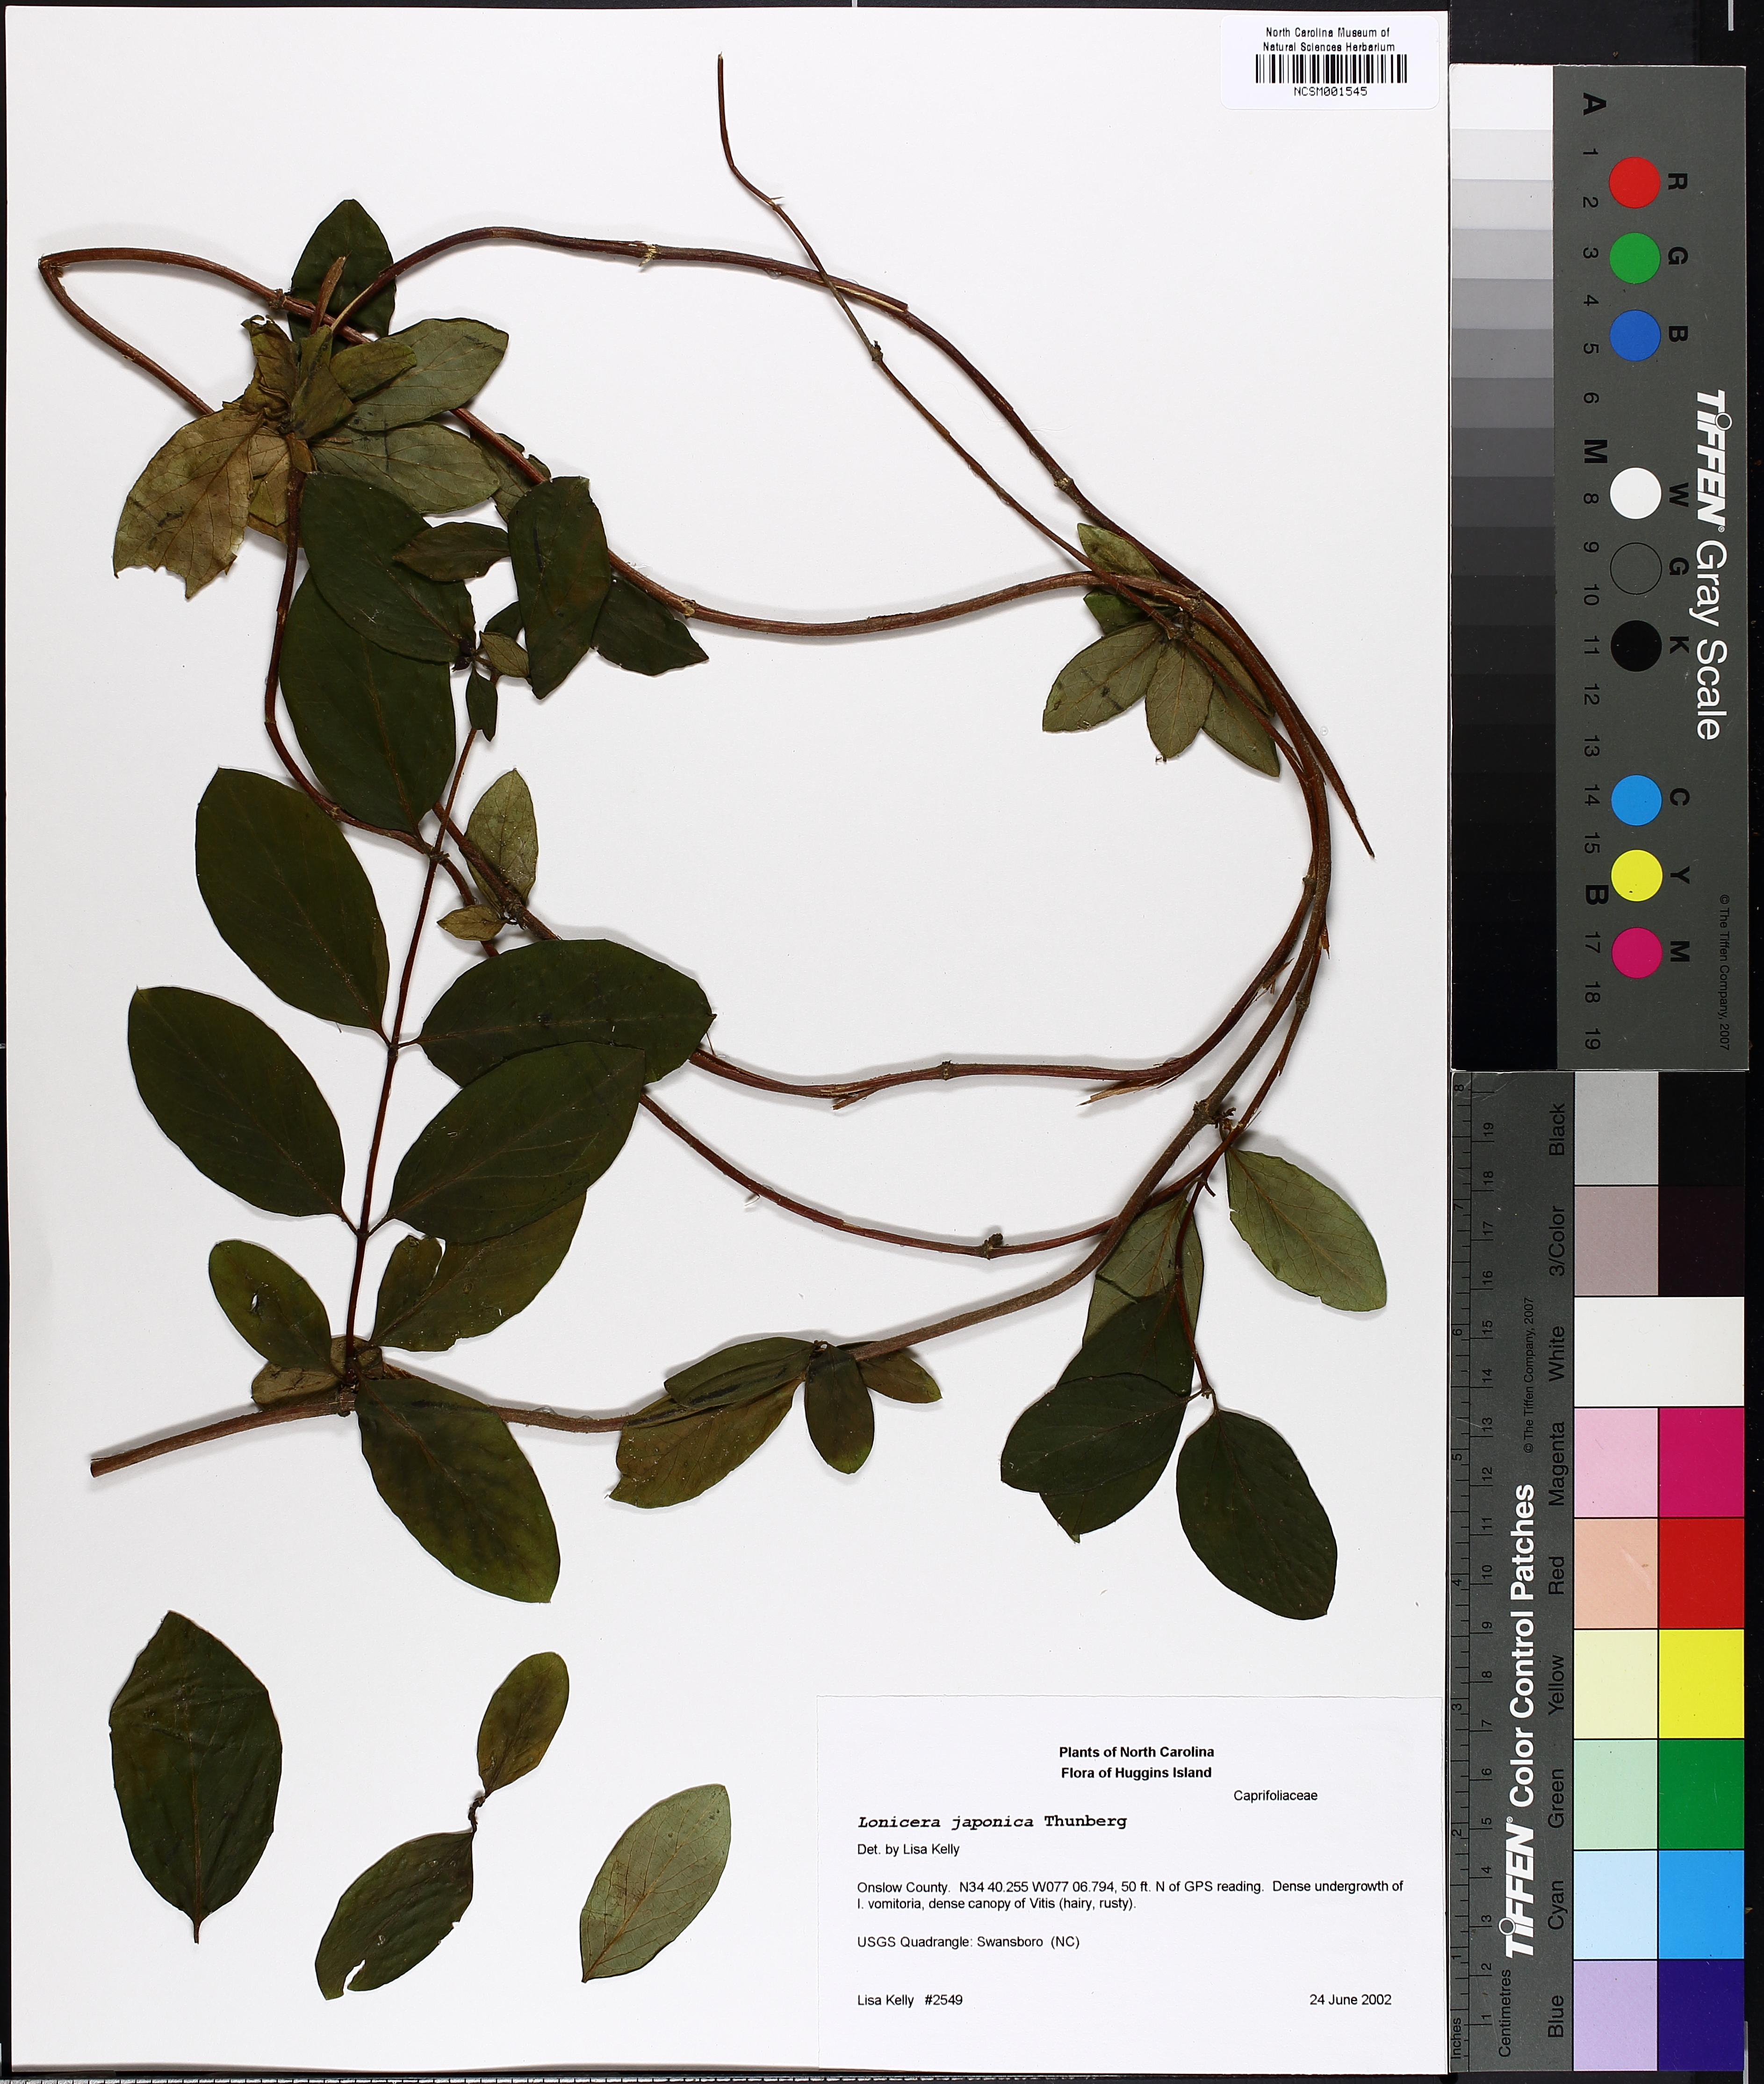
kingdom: Plantae
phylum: Tracheophyta
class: Magnoliopsida
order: Dipsacales
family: Caprifoliaceae
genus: Lonicera
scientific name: Lonicera japonica
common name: Japanese honeysuckle
